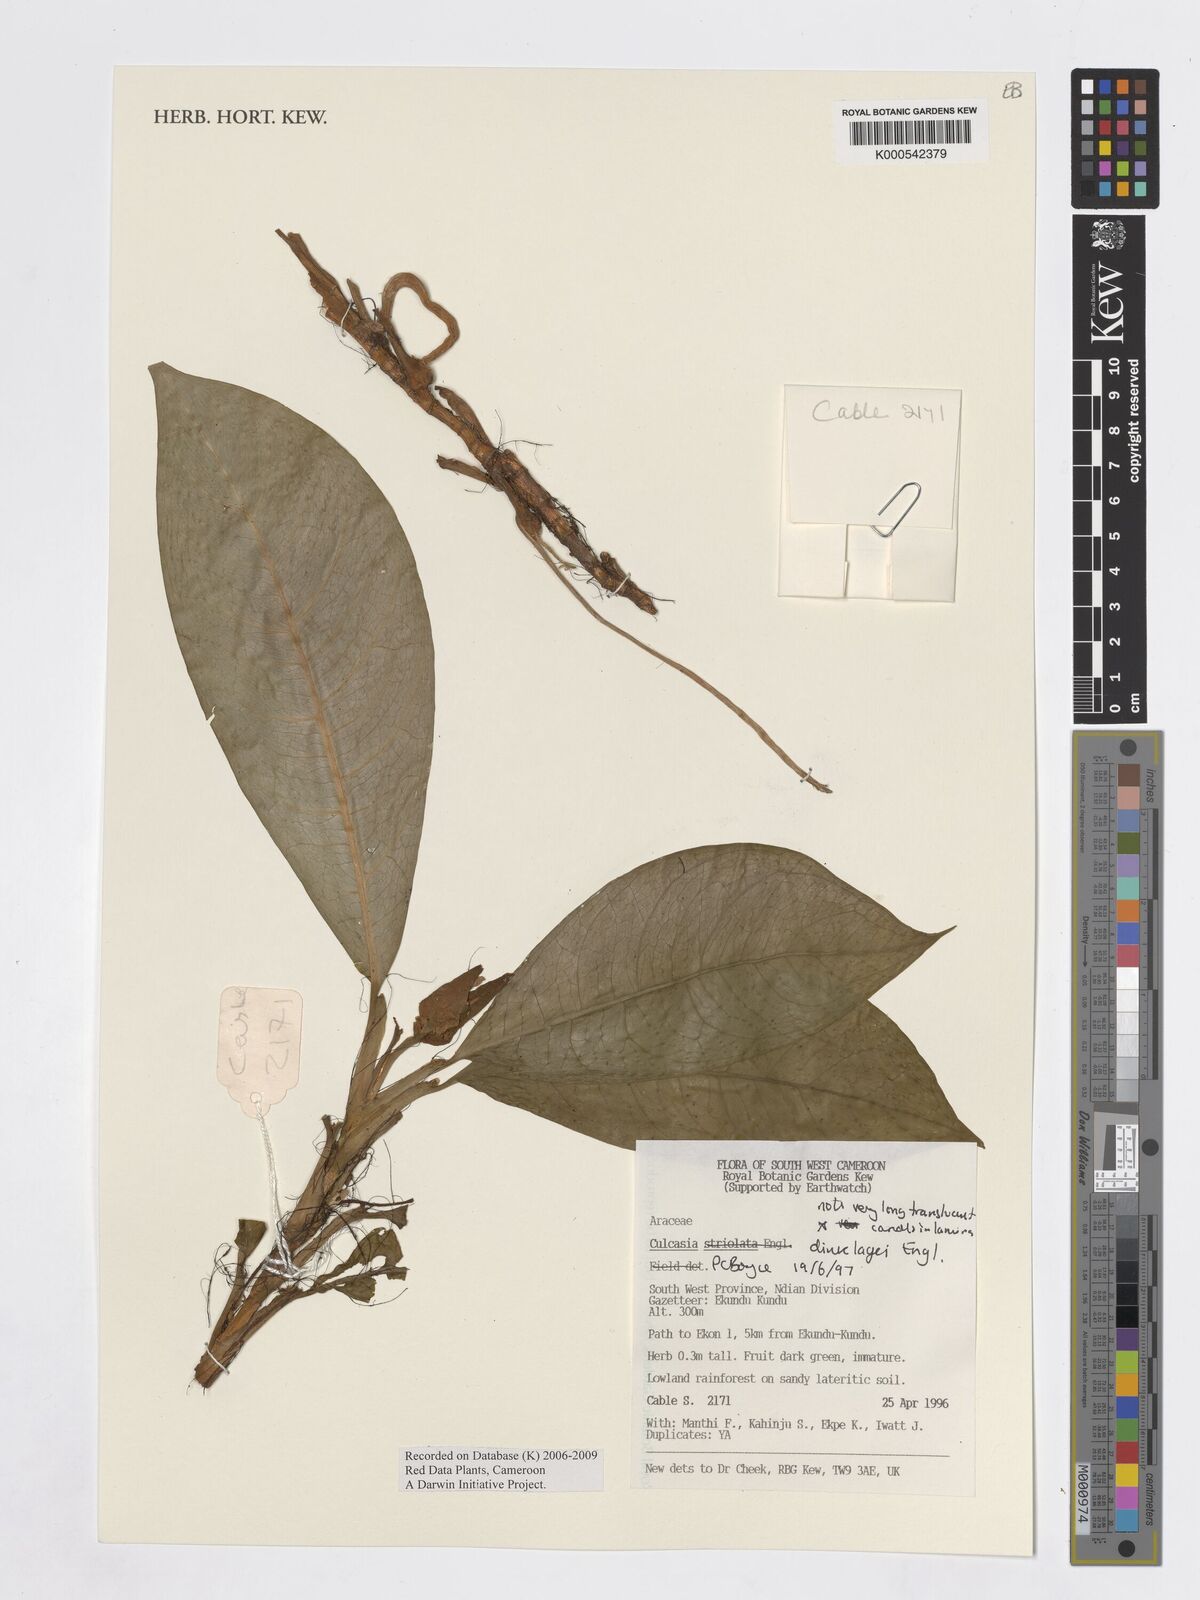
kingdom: Plantae
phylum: Tracheophyta
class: Liliopsida
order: Alismatales
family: Araceae
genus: Culcasia
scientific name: Culcasia dinklagei
